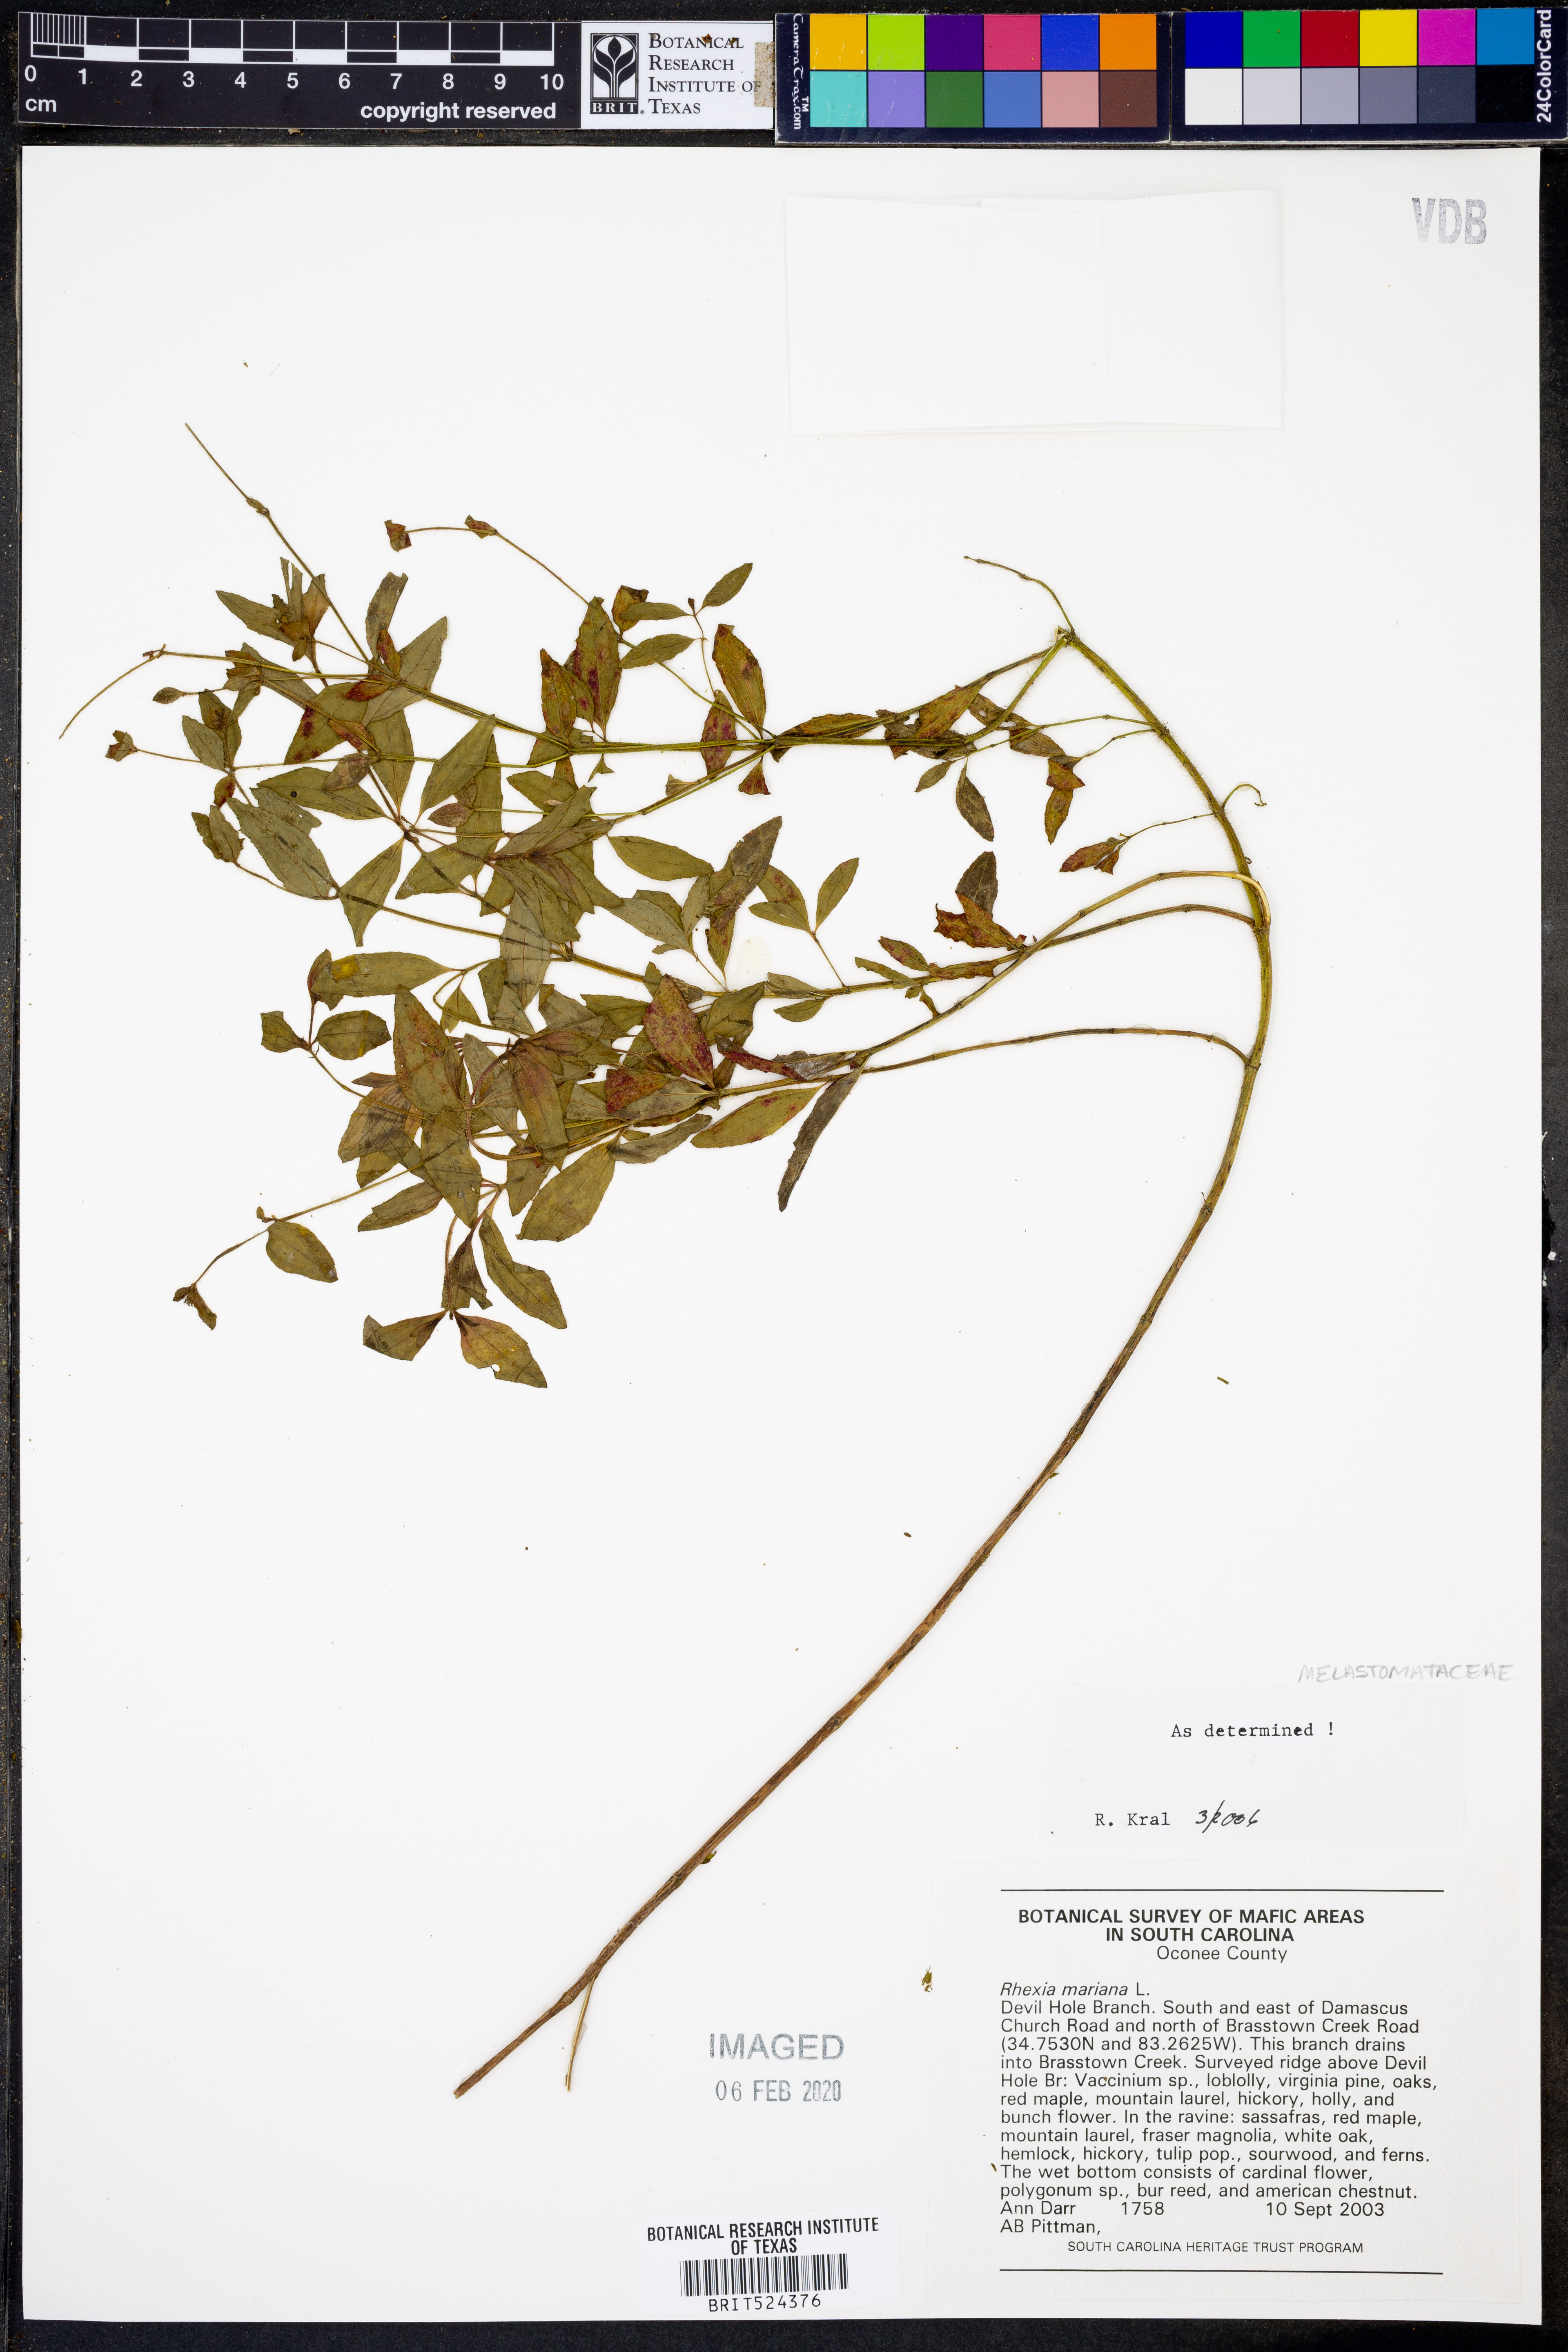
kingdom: Plantae
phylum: Tracheophyta
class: Magnoliopsida
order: Myrtales
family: Melastomataceae
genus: Rhexia
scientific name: Rhexia mariana
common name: Dull meadow-pitcher
